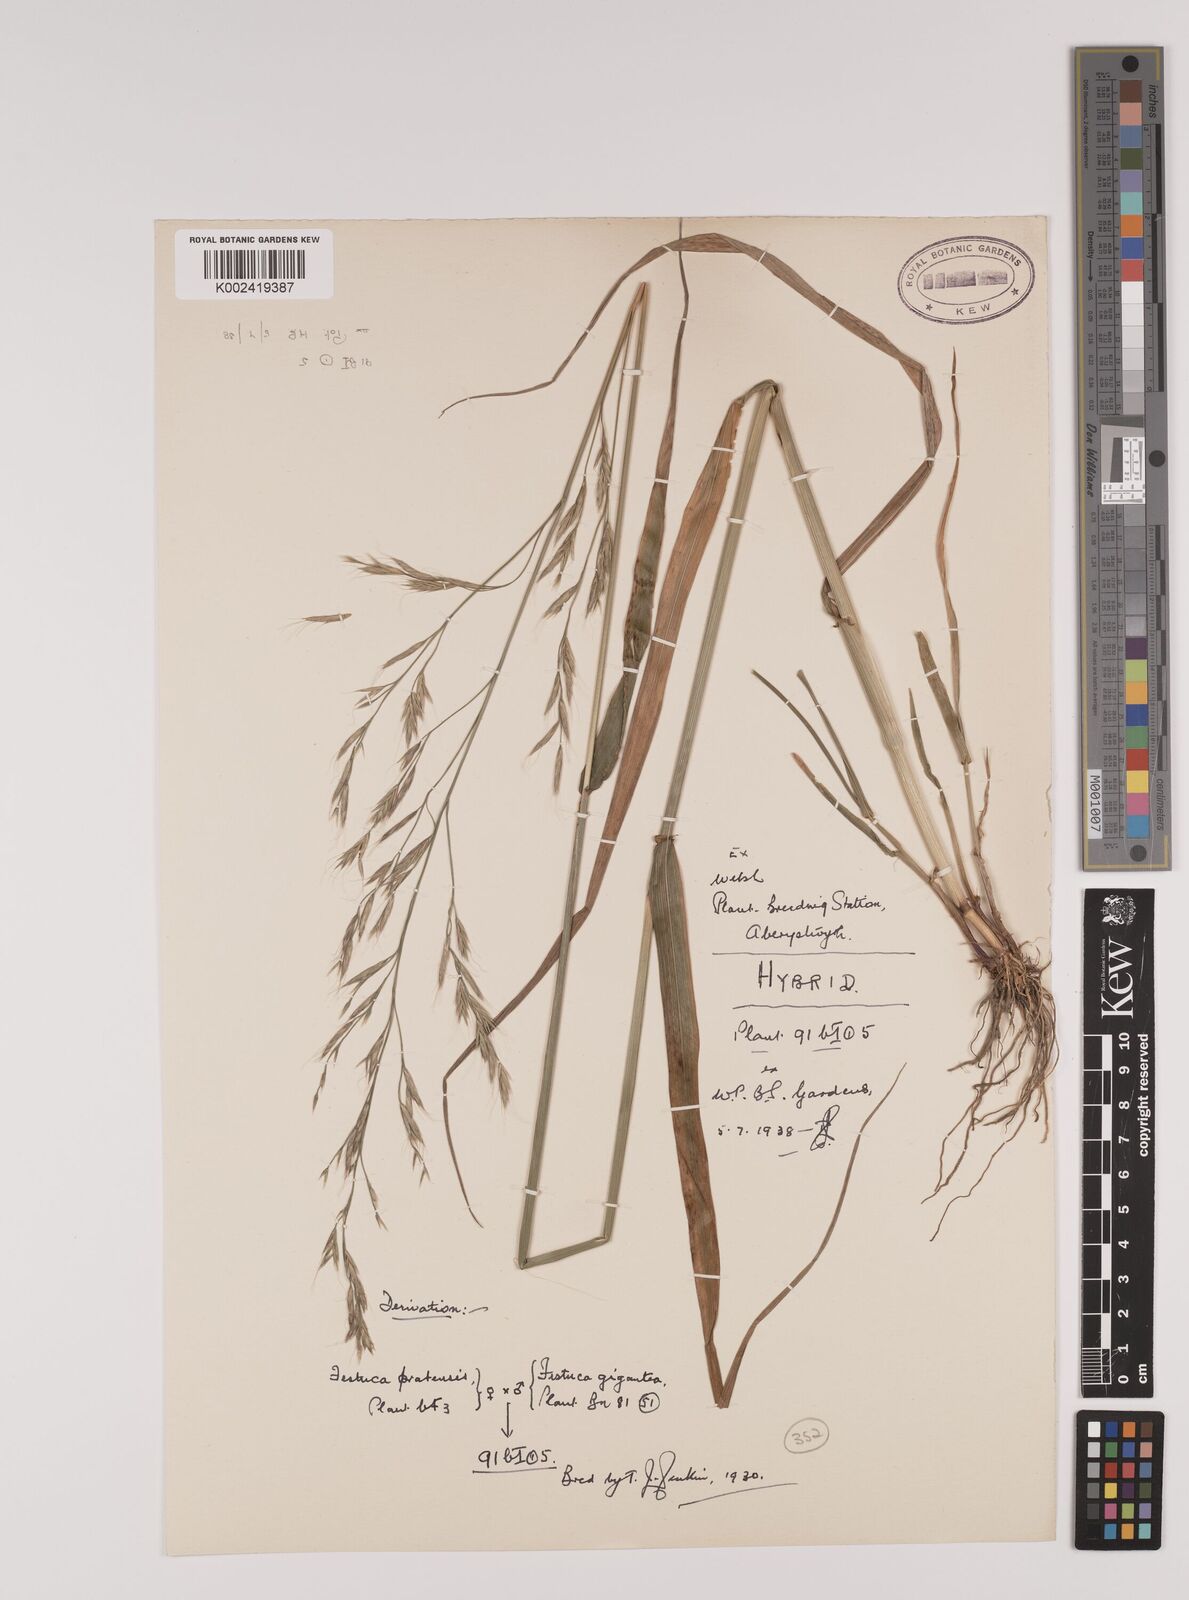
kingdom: Plantae
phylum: Tracheophyta
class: Liliopsida
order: Poales
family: Poaceae
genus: Lolium
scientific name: Lolium giganteum
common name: Giant fescue
